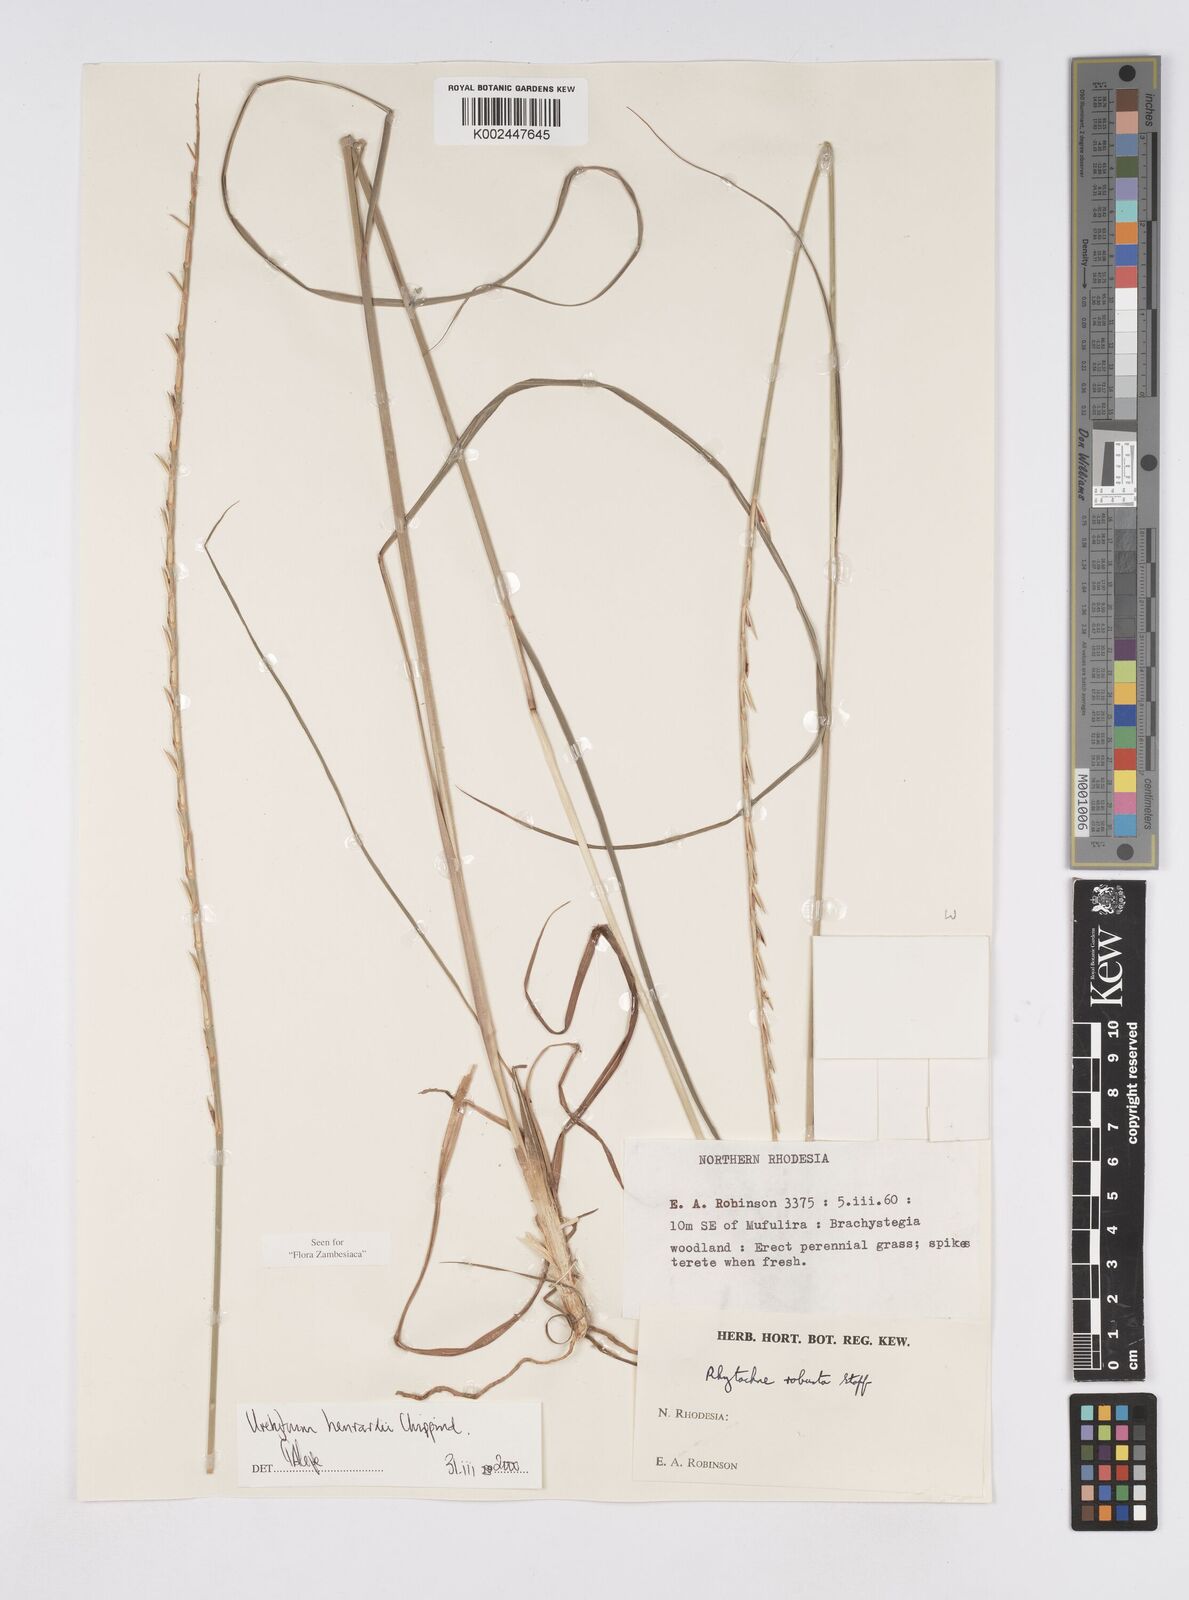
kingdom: Plantae
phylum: Tracheophyta
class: Liliopsida
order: Poales
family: Poaceae
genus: Urelytrum
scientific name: Urelytrum henrardii
